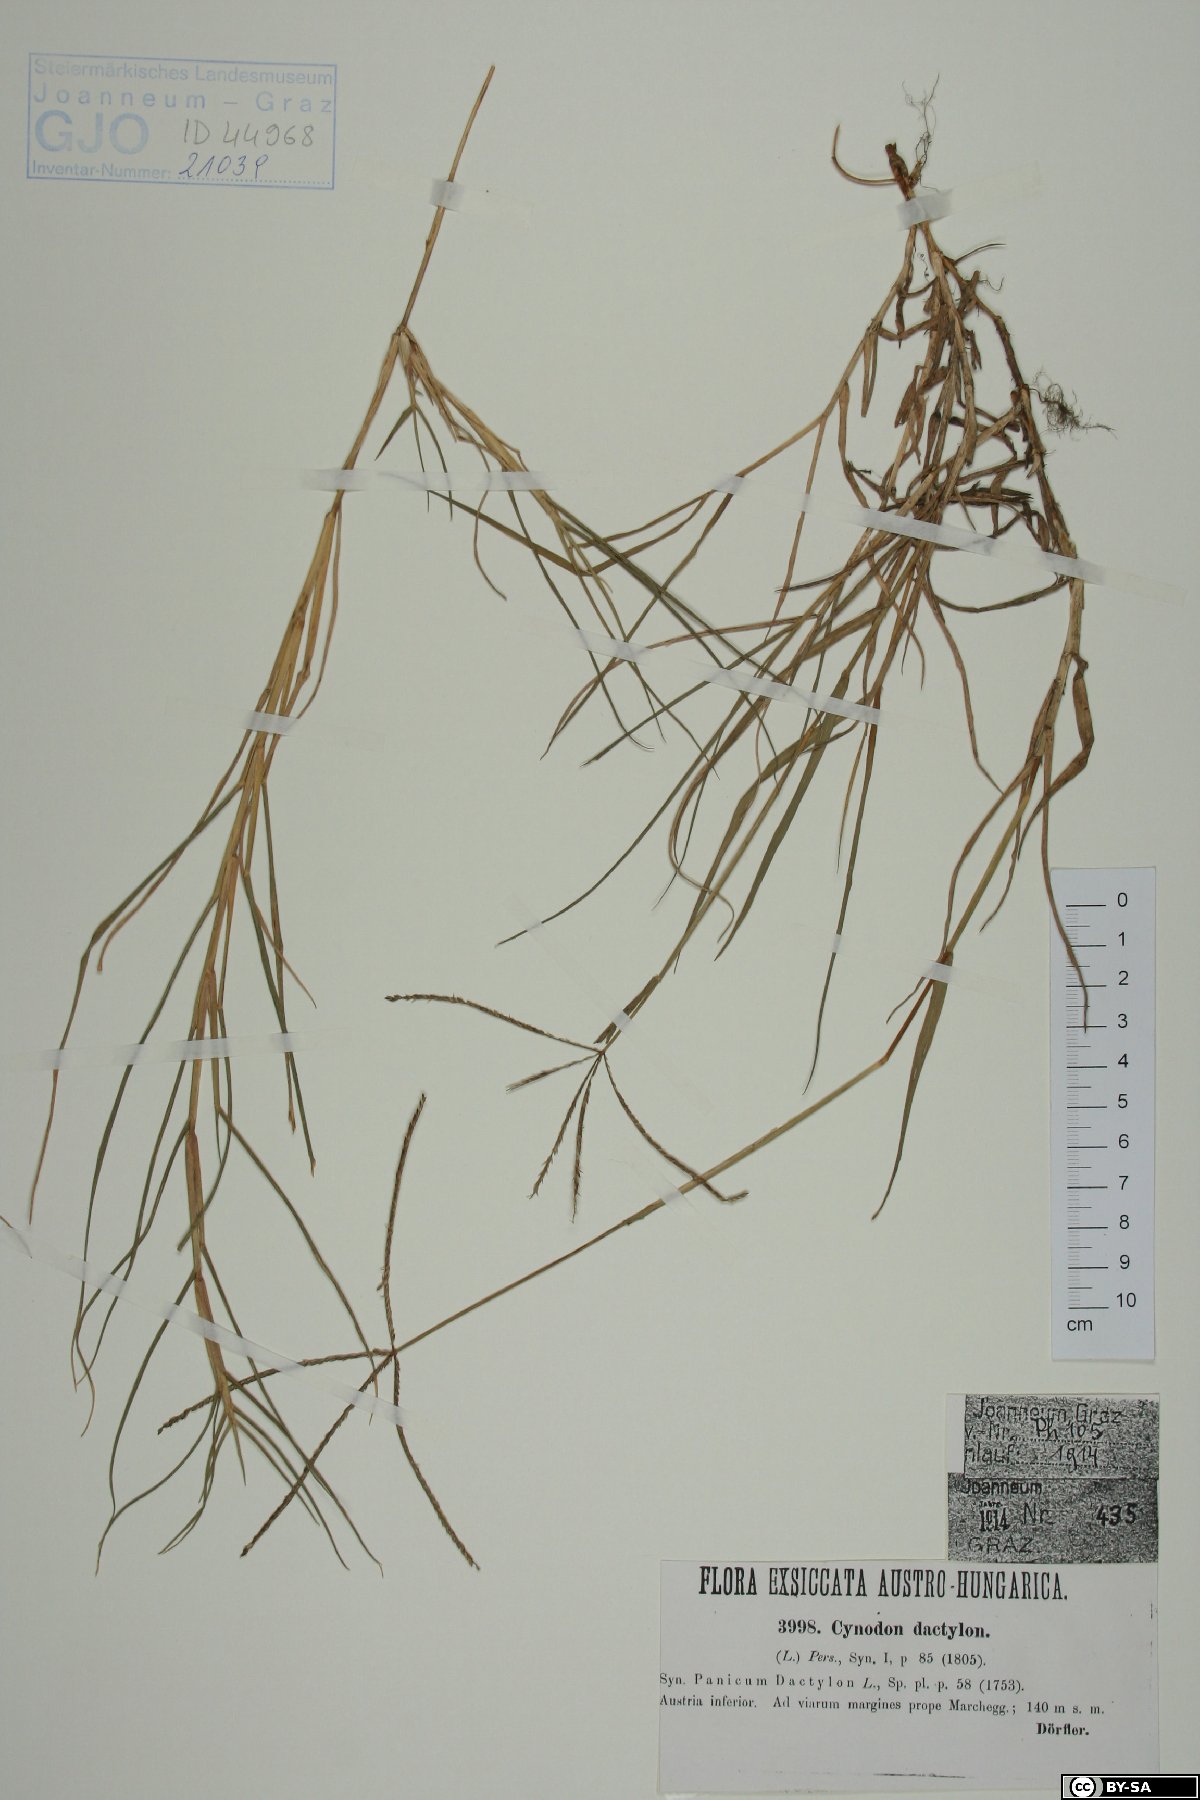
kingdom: Plantae
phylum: Tracheophyta
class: Liliopsida
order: Poales
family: Poaceae
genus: Cynodon
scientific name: Cynodon dactylon
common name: Bermuda grass
